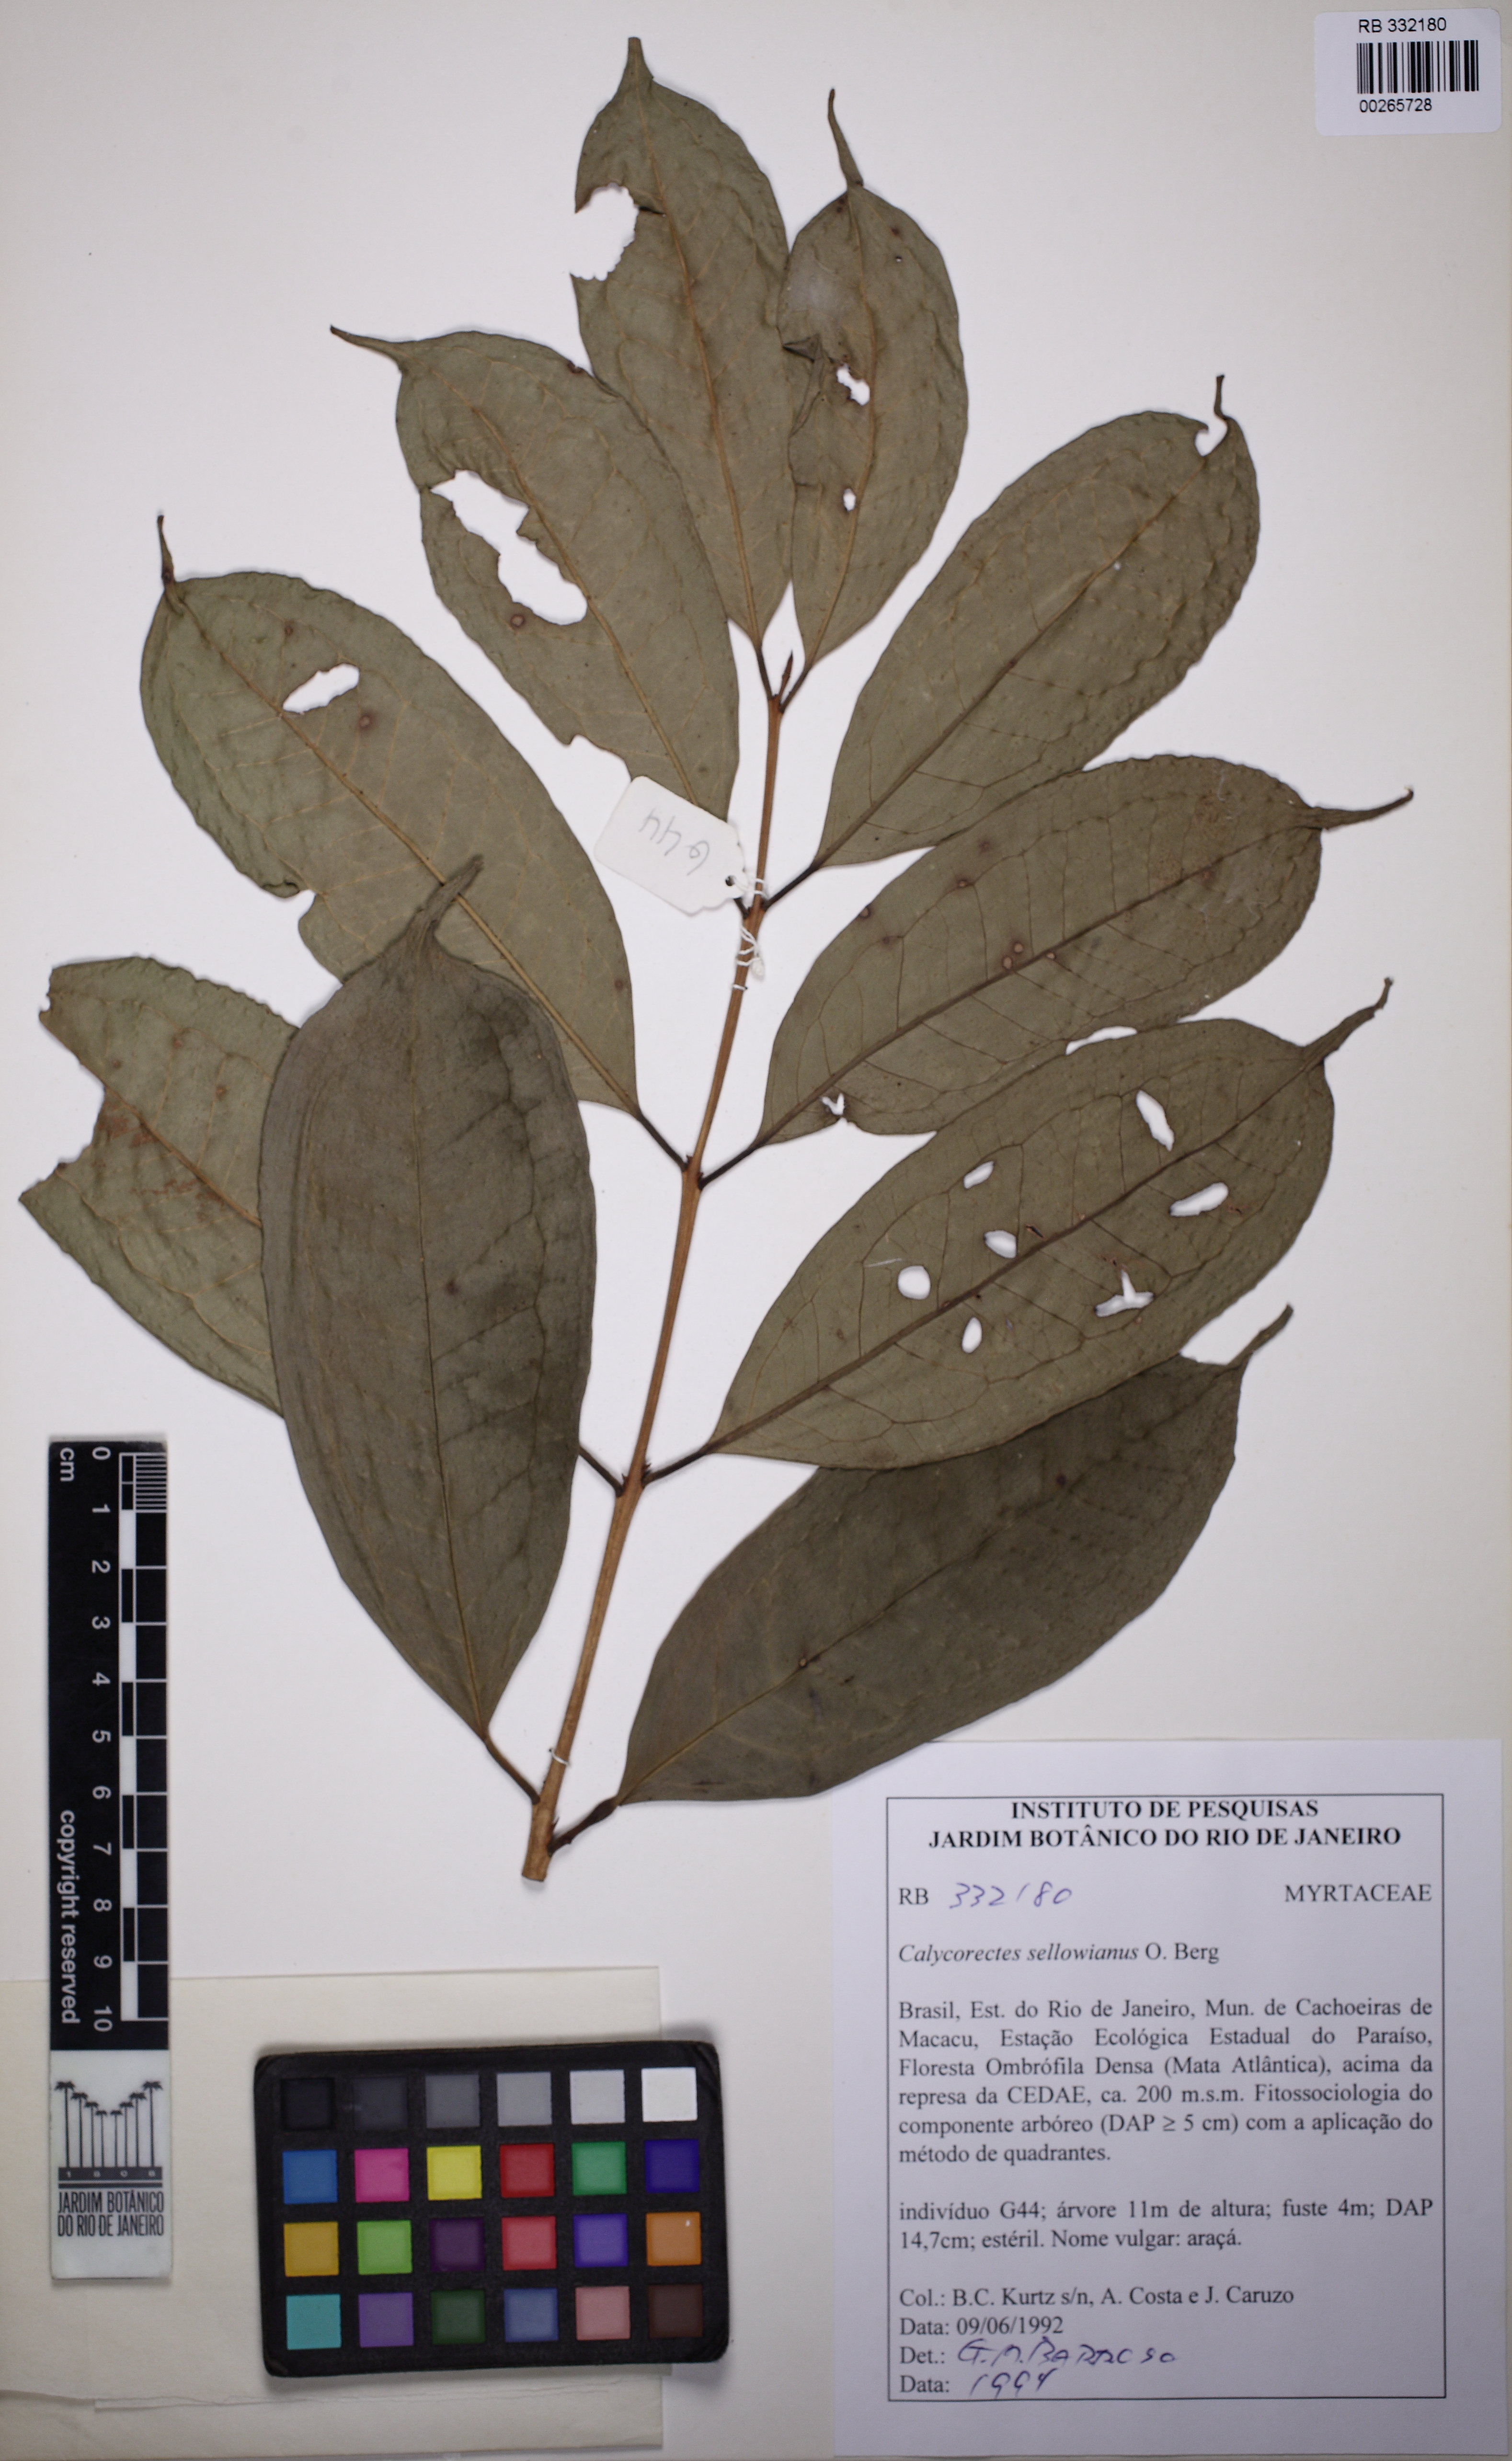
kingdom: Plantae
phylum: Tracheophyta
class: Magnoliopsida
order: Myrtales
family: Myrtaceae
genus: Eugenia
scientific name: Eugenia brevistyla
